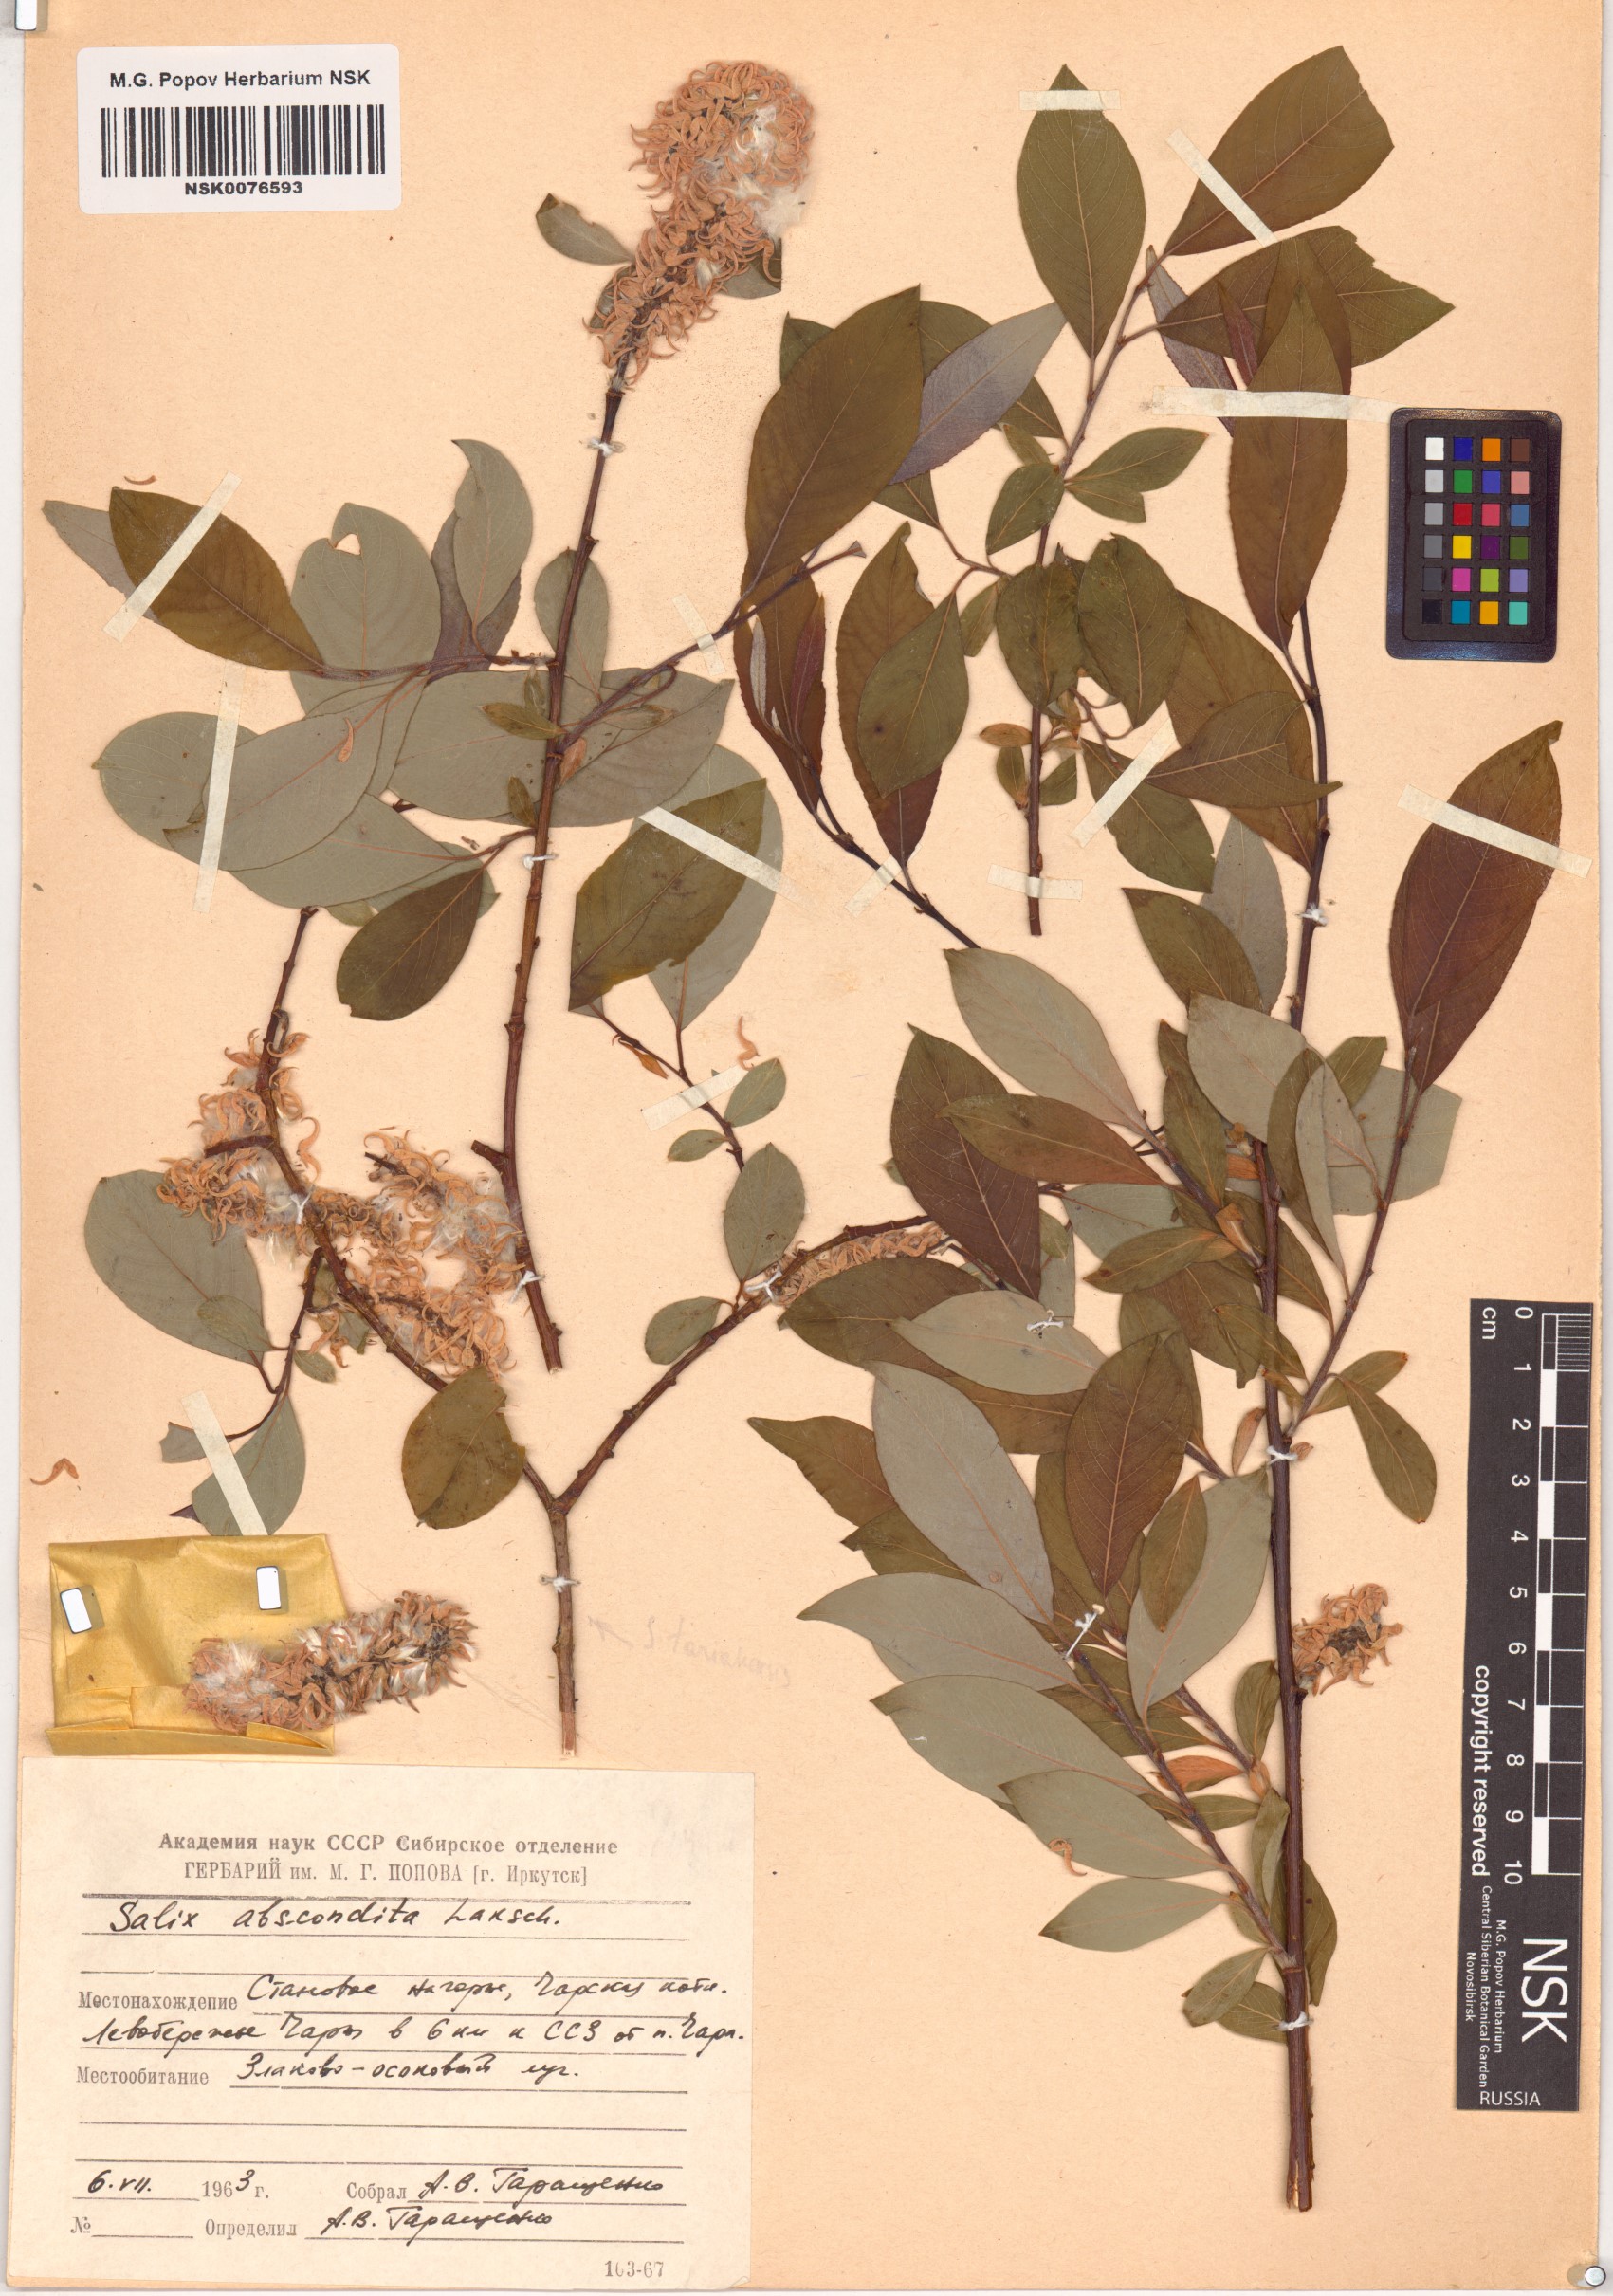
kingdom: Plantae
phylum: Tracheophyta
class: Magnoliopsida
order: Malpighiales
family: Salicaceae
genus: Salix
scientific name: Salix abscondita
